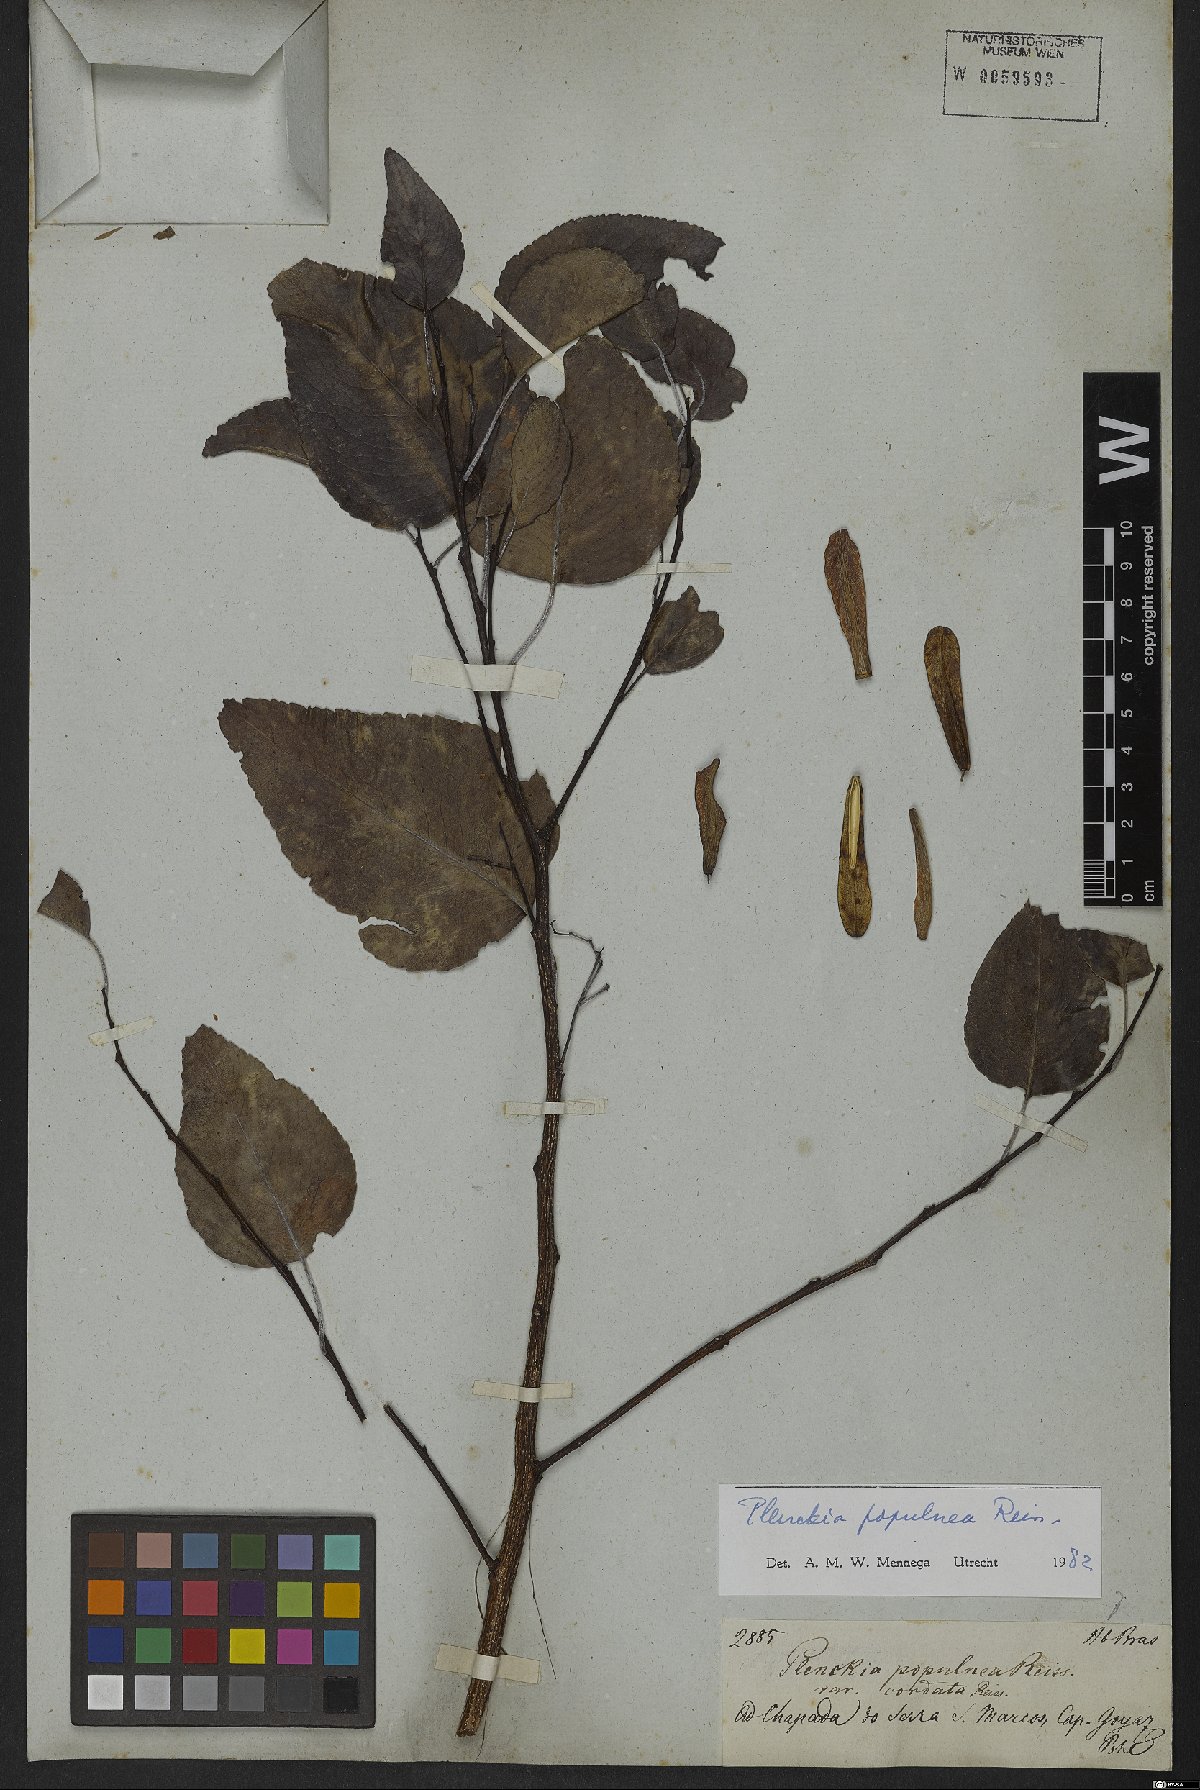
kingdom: Plantae
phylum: Tracheophyta
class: Magnoliopsida
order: Celastrales
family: Celastraceae
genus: Plenckia
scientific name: Plenckia populnea
